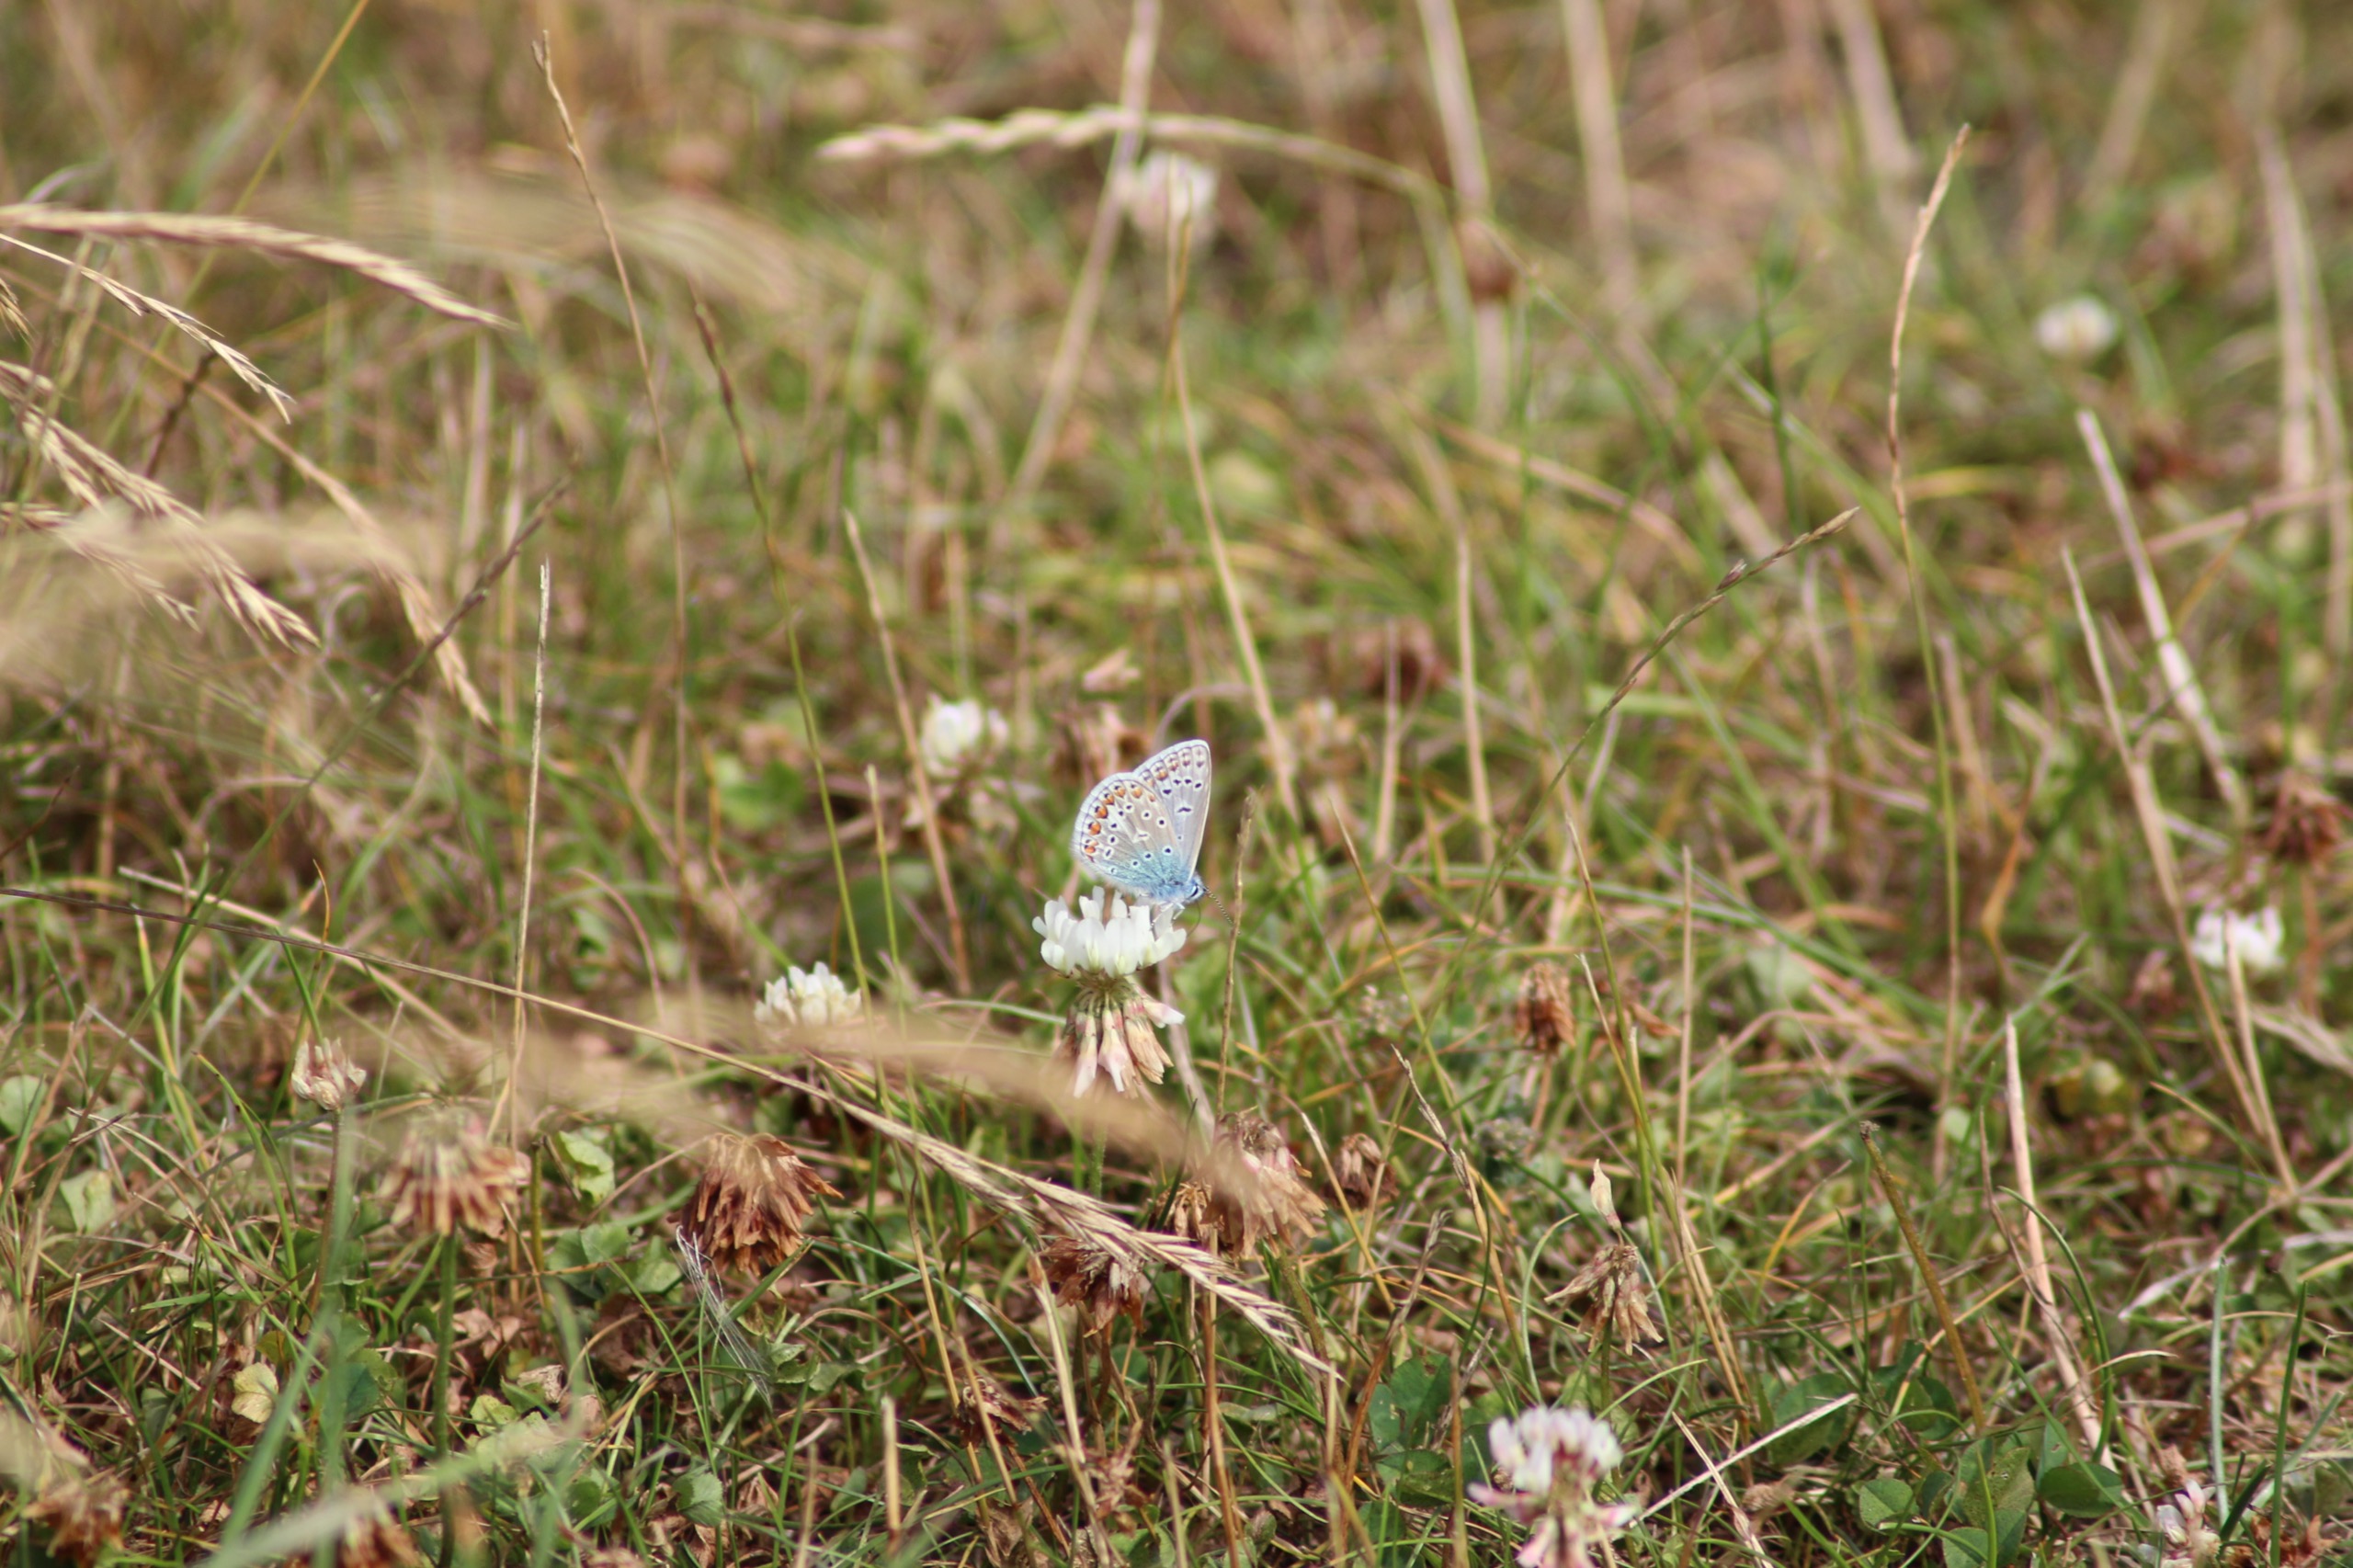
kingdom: Animalia
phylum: Arthropoda
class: Insecta
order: Lepidoptera
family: Lycaenidae
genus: Polyommatus
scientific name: Polyommatus icarus
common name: Almindelig blåfugl
